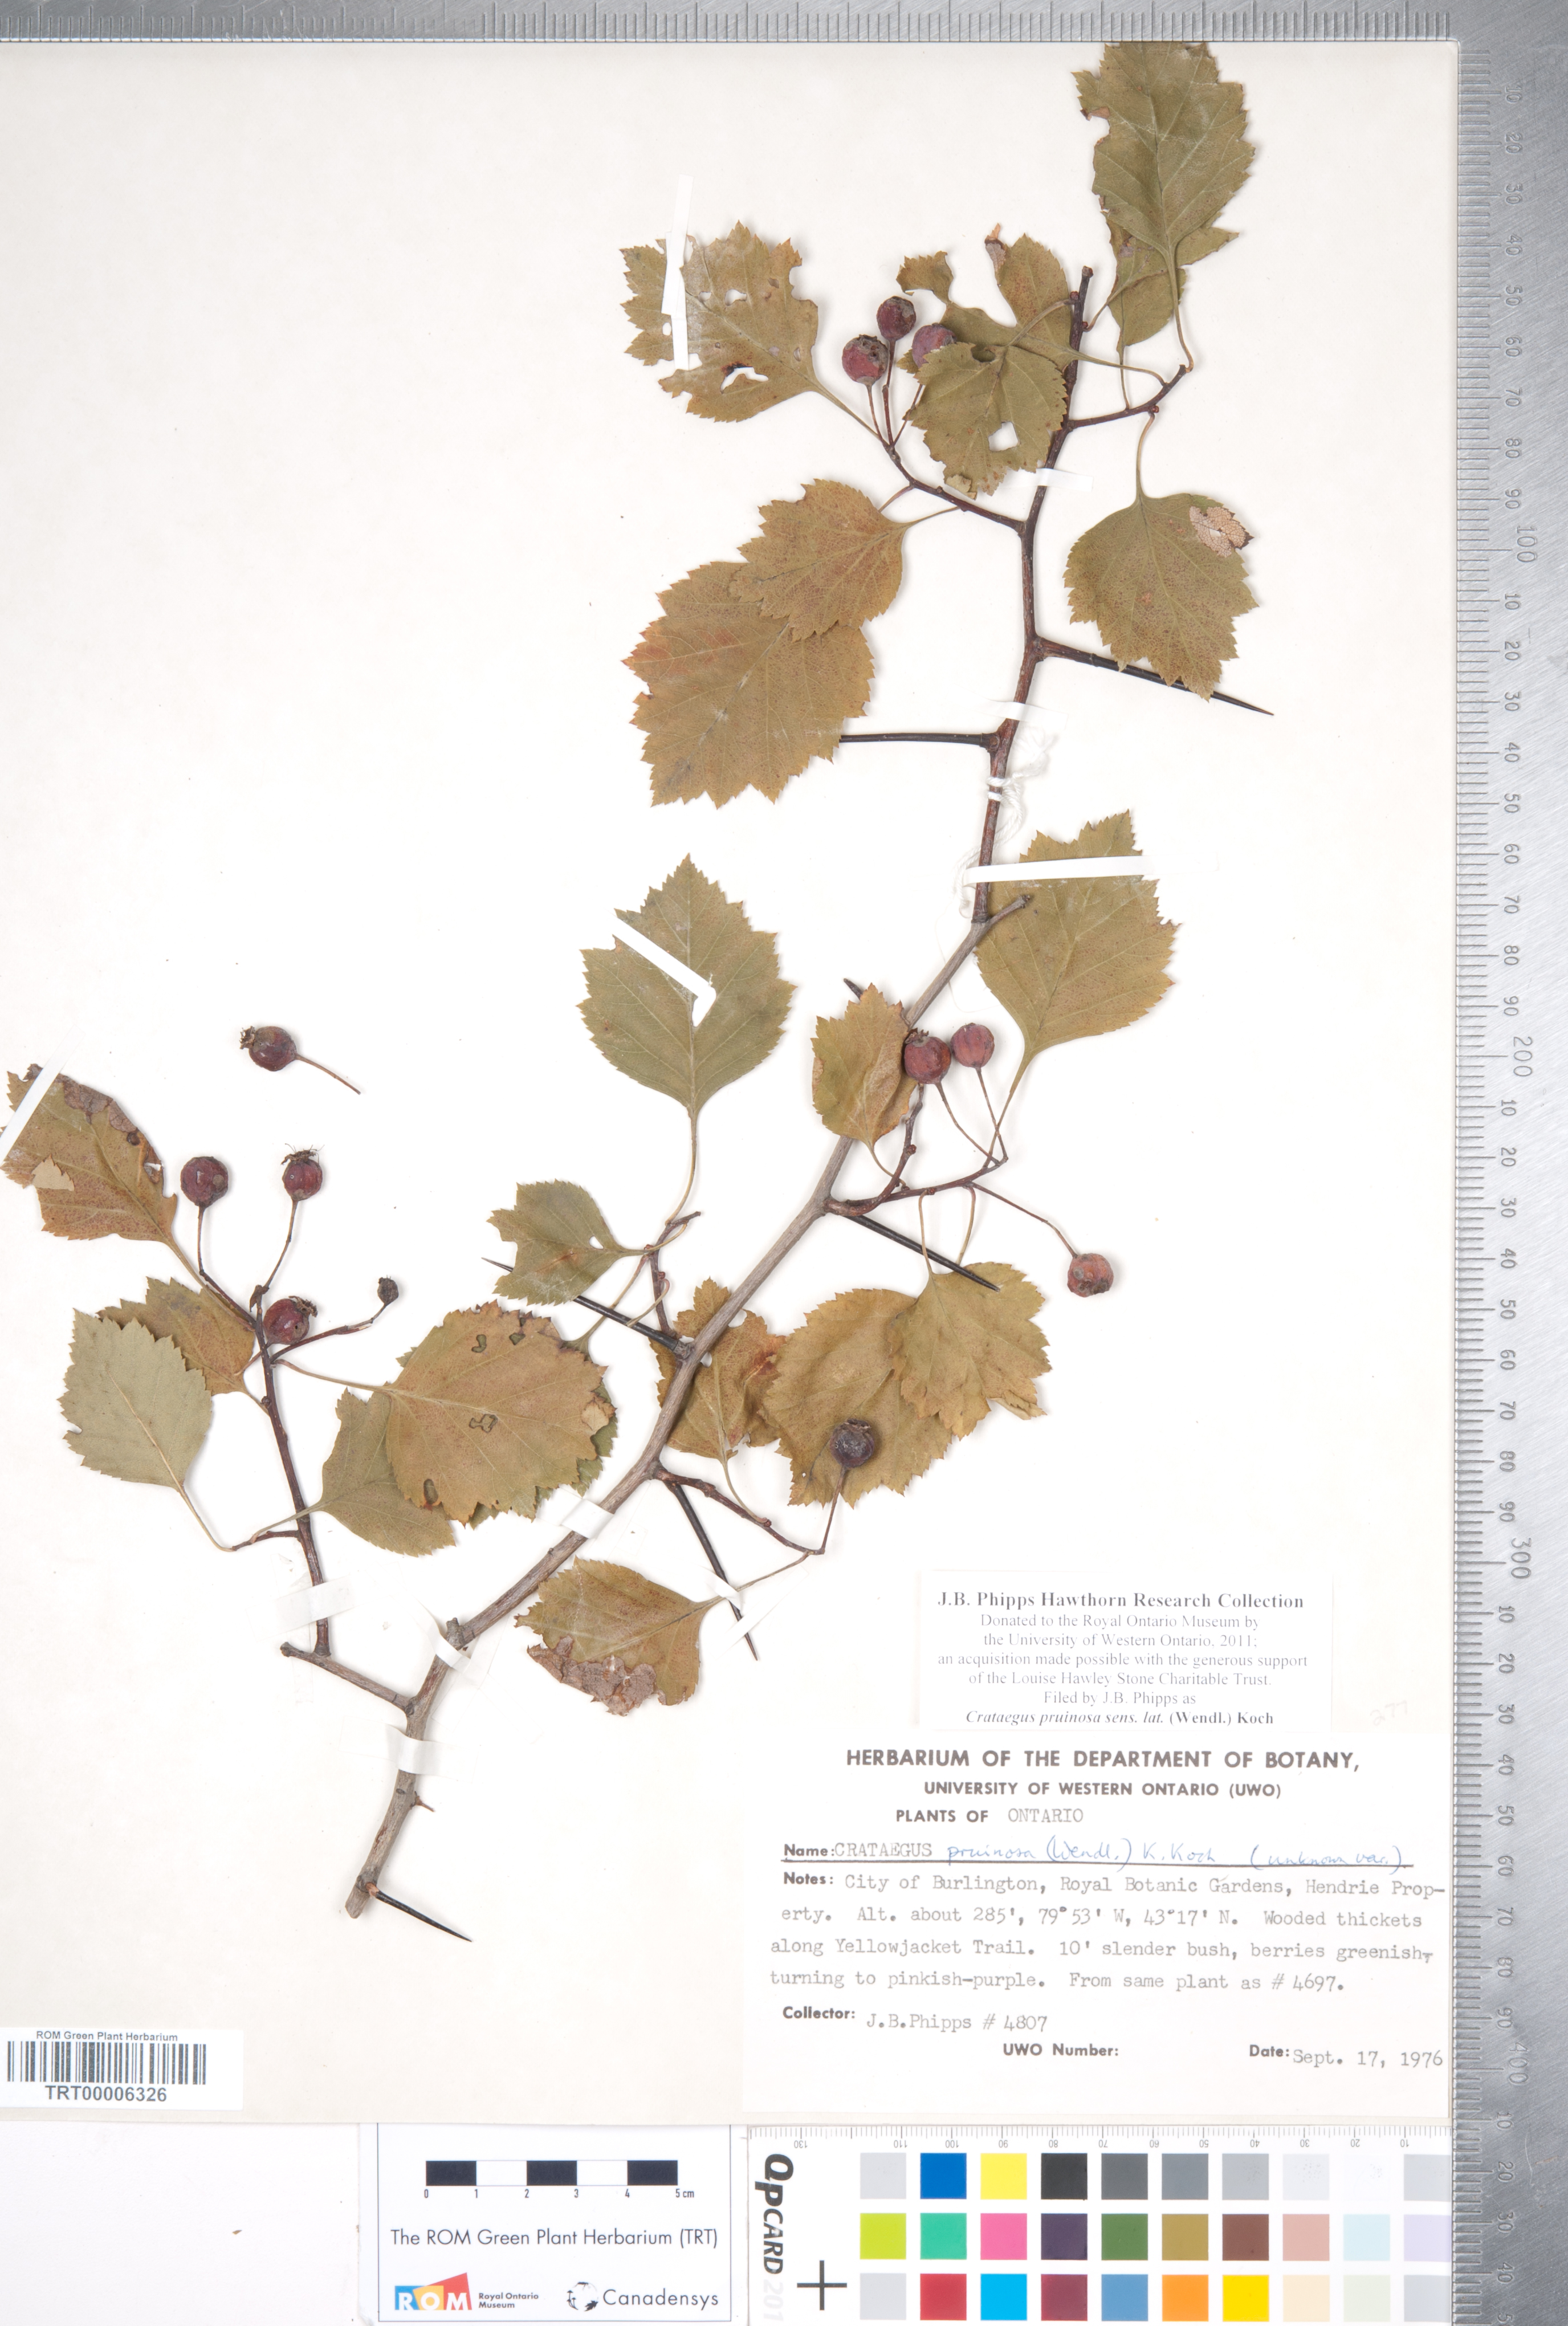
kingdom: Plantae
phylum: Tracheophyta
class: Magnoliopsida
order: Rosales
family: Rosaceae
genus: Crataegus
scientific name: Crataegus pruinosa
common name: Waxy-fruit hawthorn
